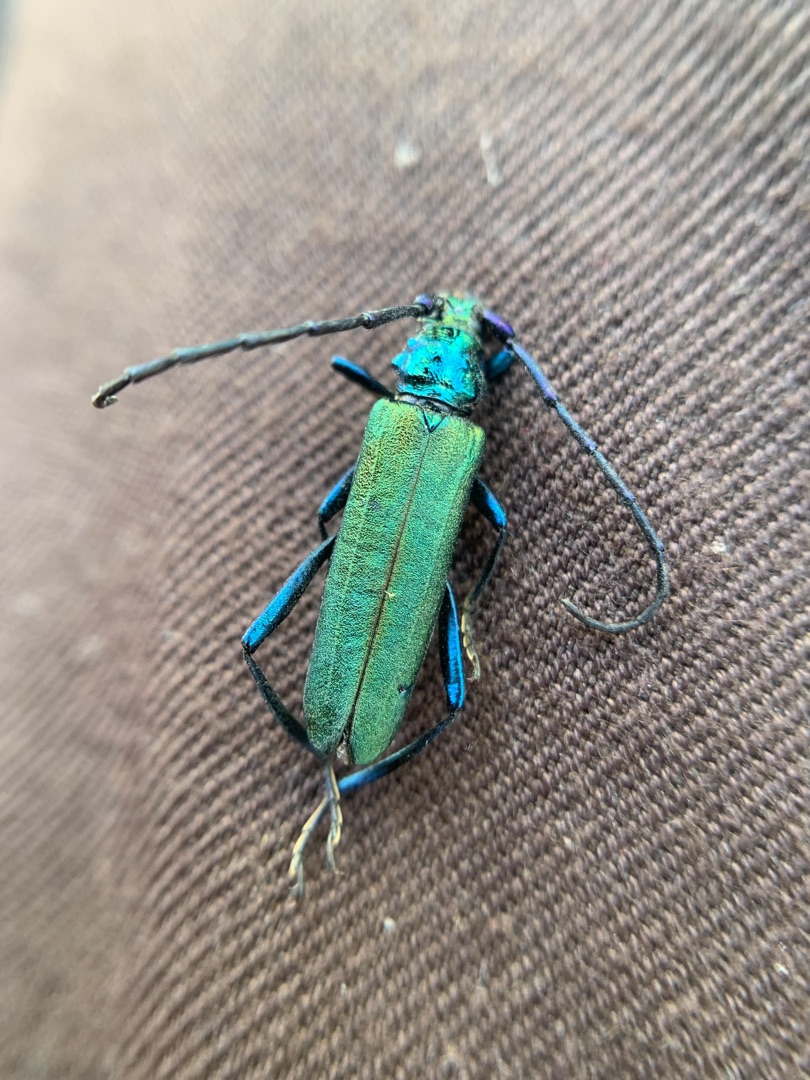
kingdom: Animalia
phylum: Arthropoda
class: Insecta
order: Coleoptera
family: Cerambycidae
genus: Aromia
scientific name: Aromia moschata
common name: Moskusbuk
